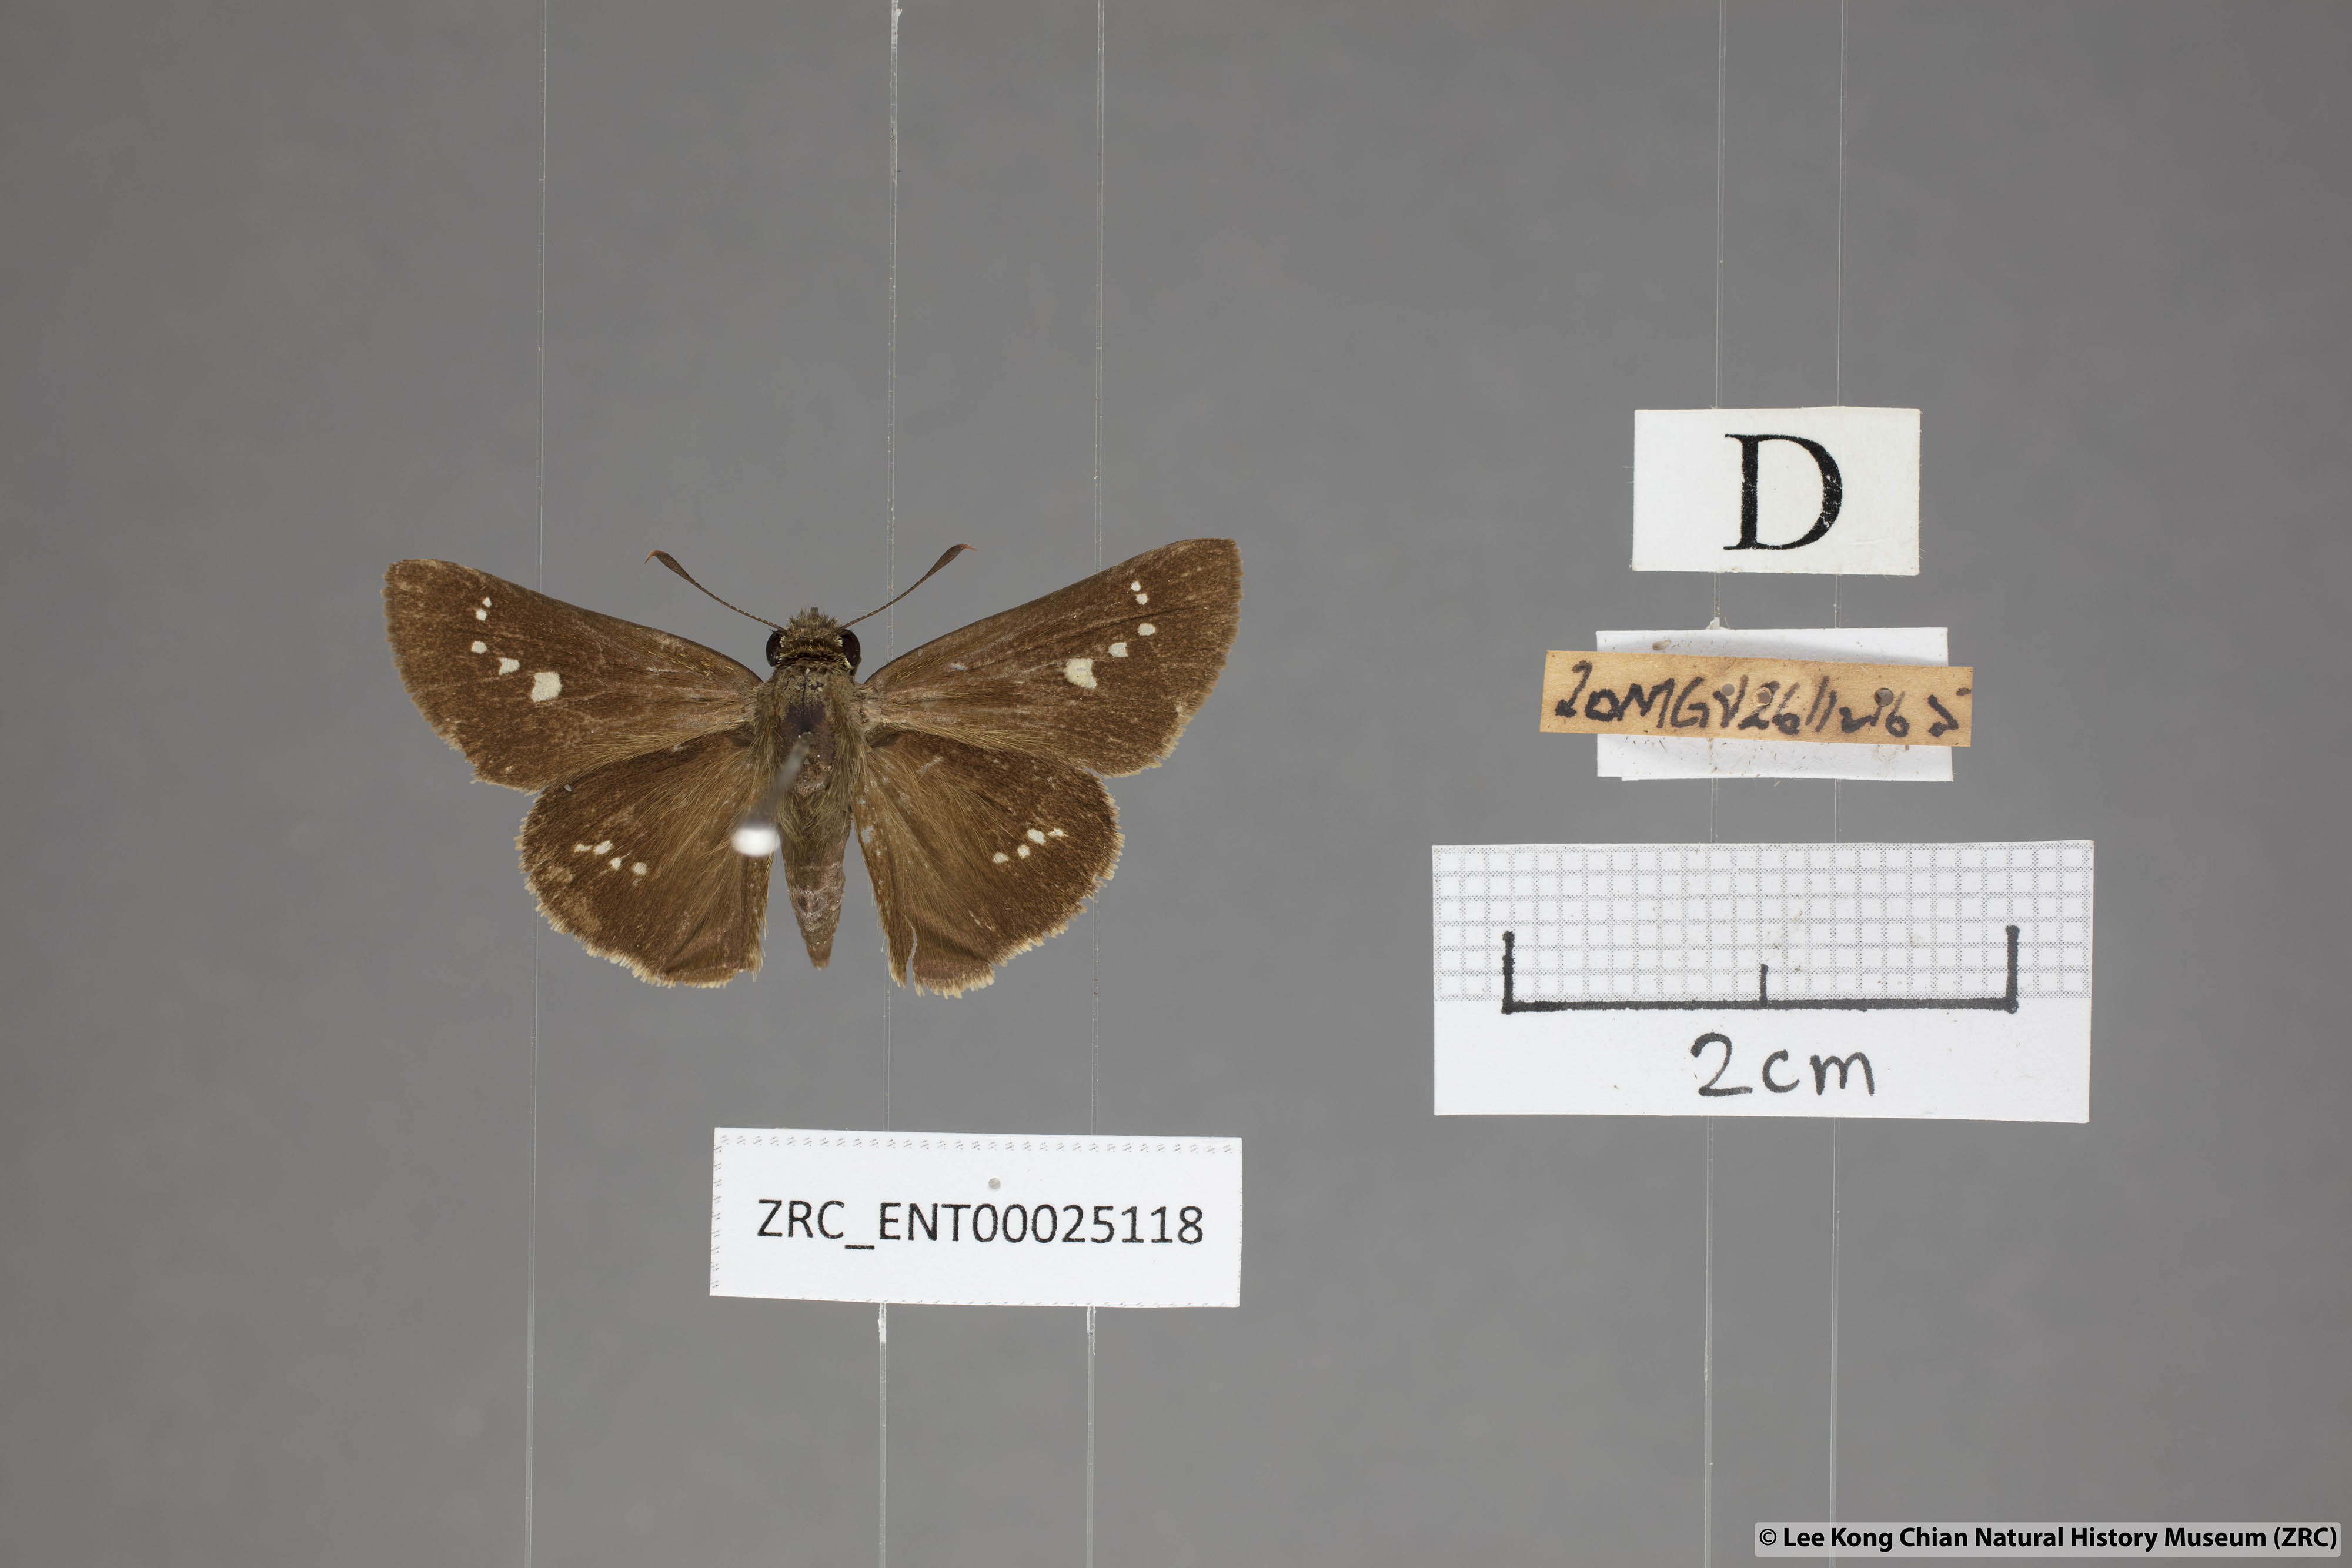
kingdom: Animalia
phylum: Arthropoda
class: Insecta
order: Lepidoptera
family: Hesperiidae
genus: Parnara
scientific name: Parnara apostata
